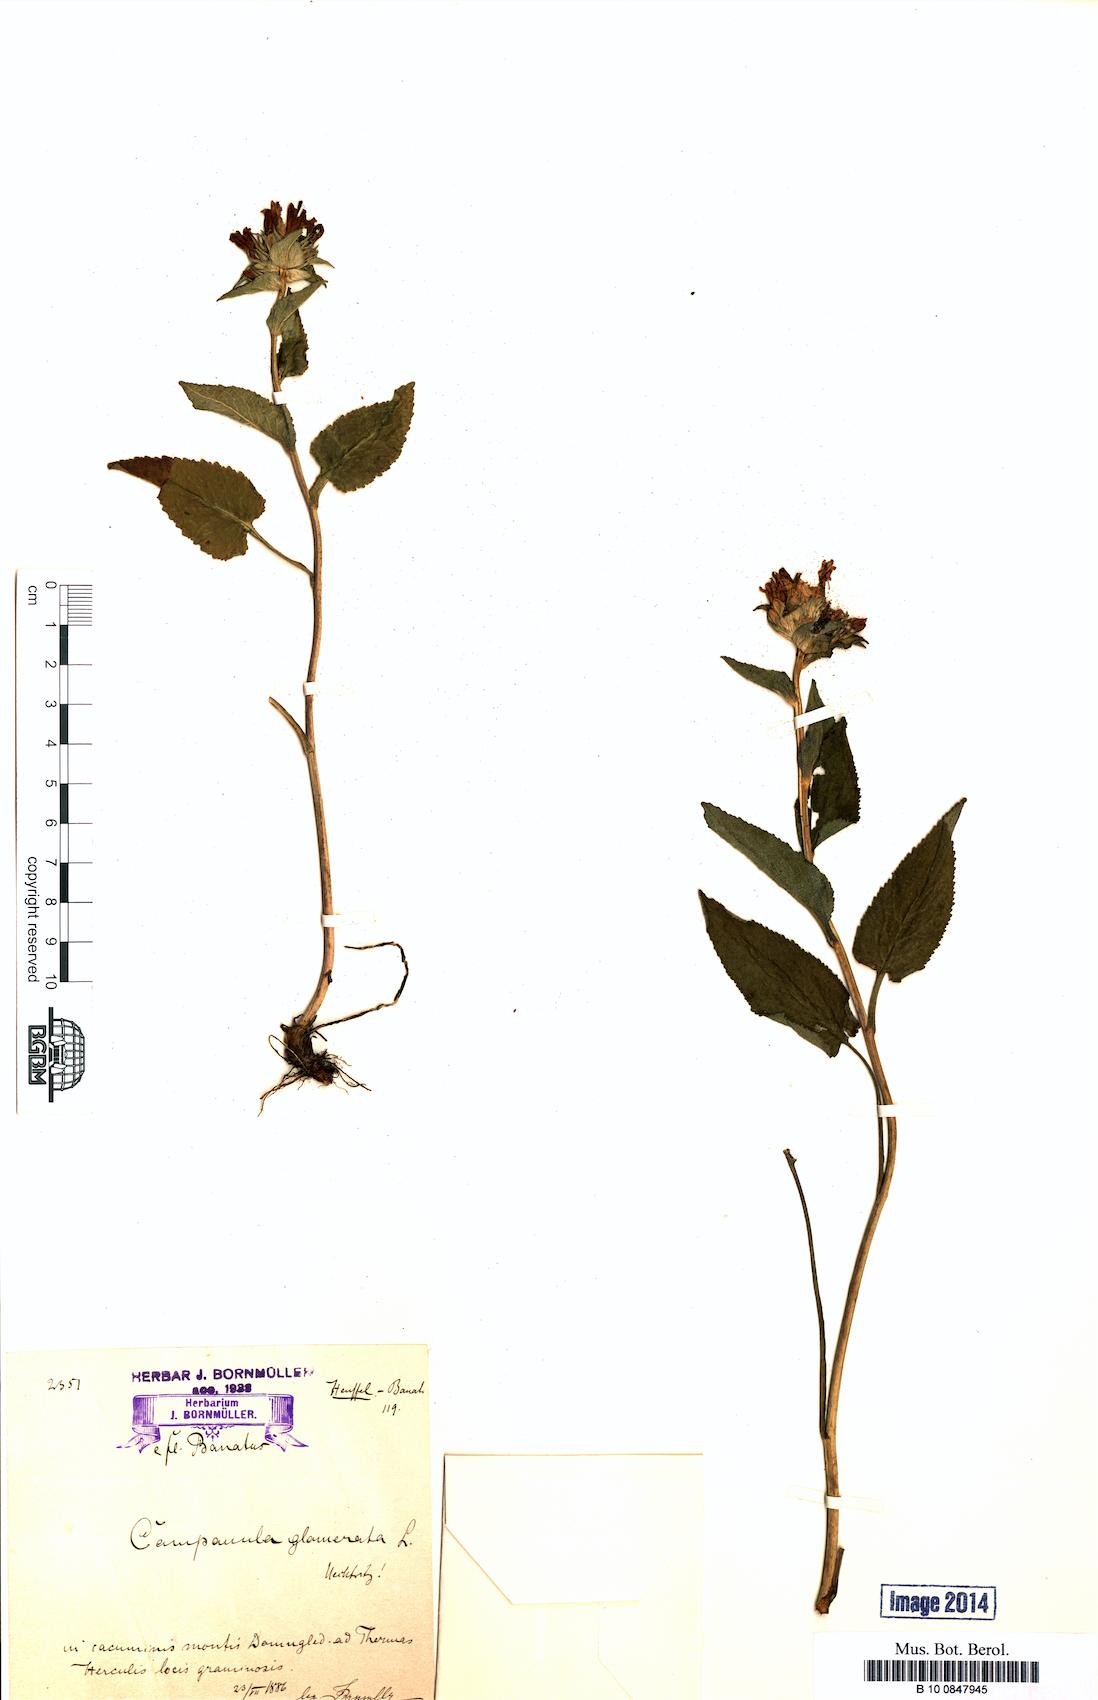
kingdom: Plantae
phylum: Tracheophyta
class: Magnoliopsida
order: Asterales
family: Campanulaceae
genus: Campanula
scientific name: Campanula glomerata
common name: Clustered bellflower
